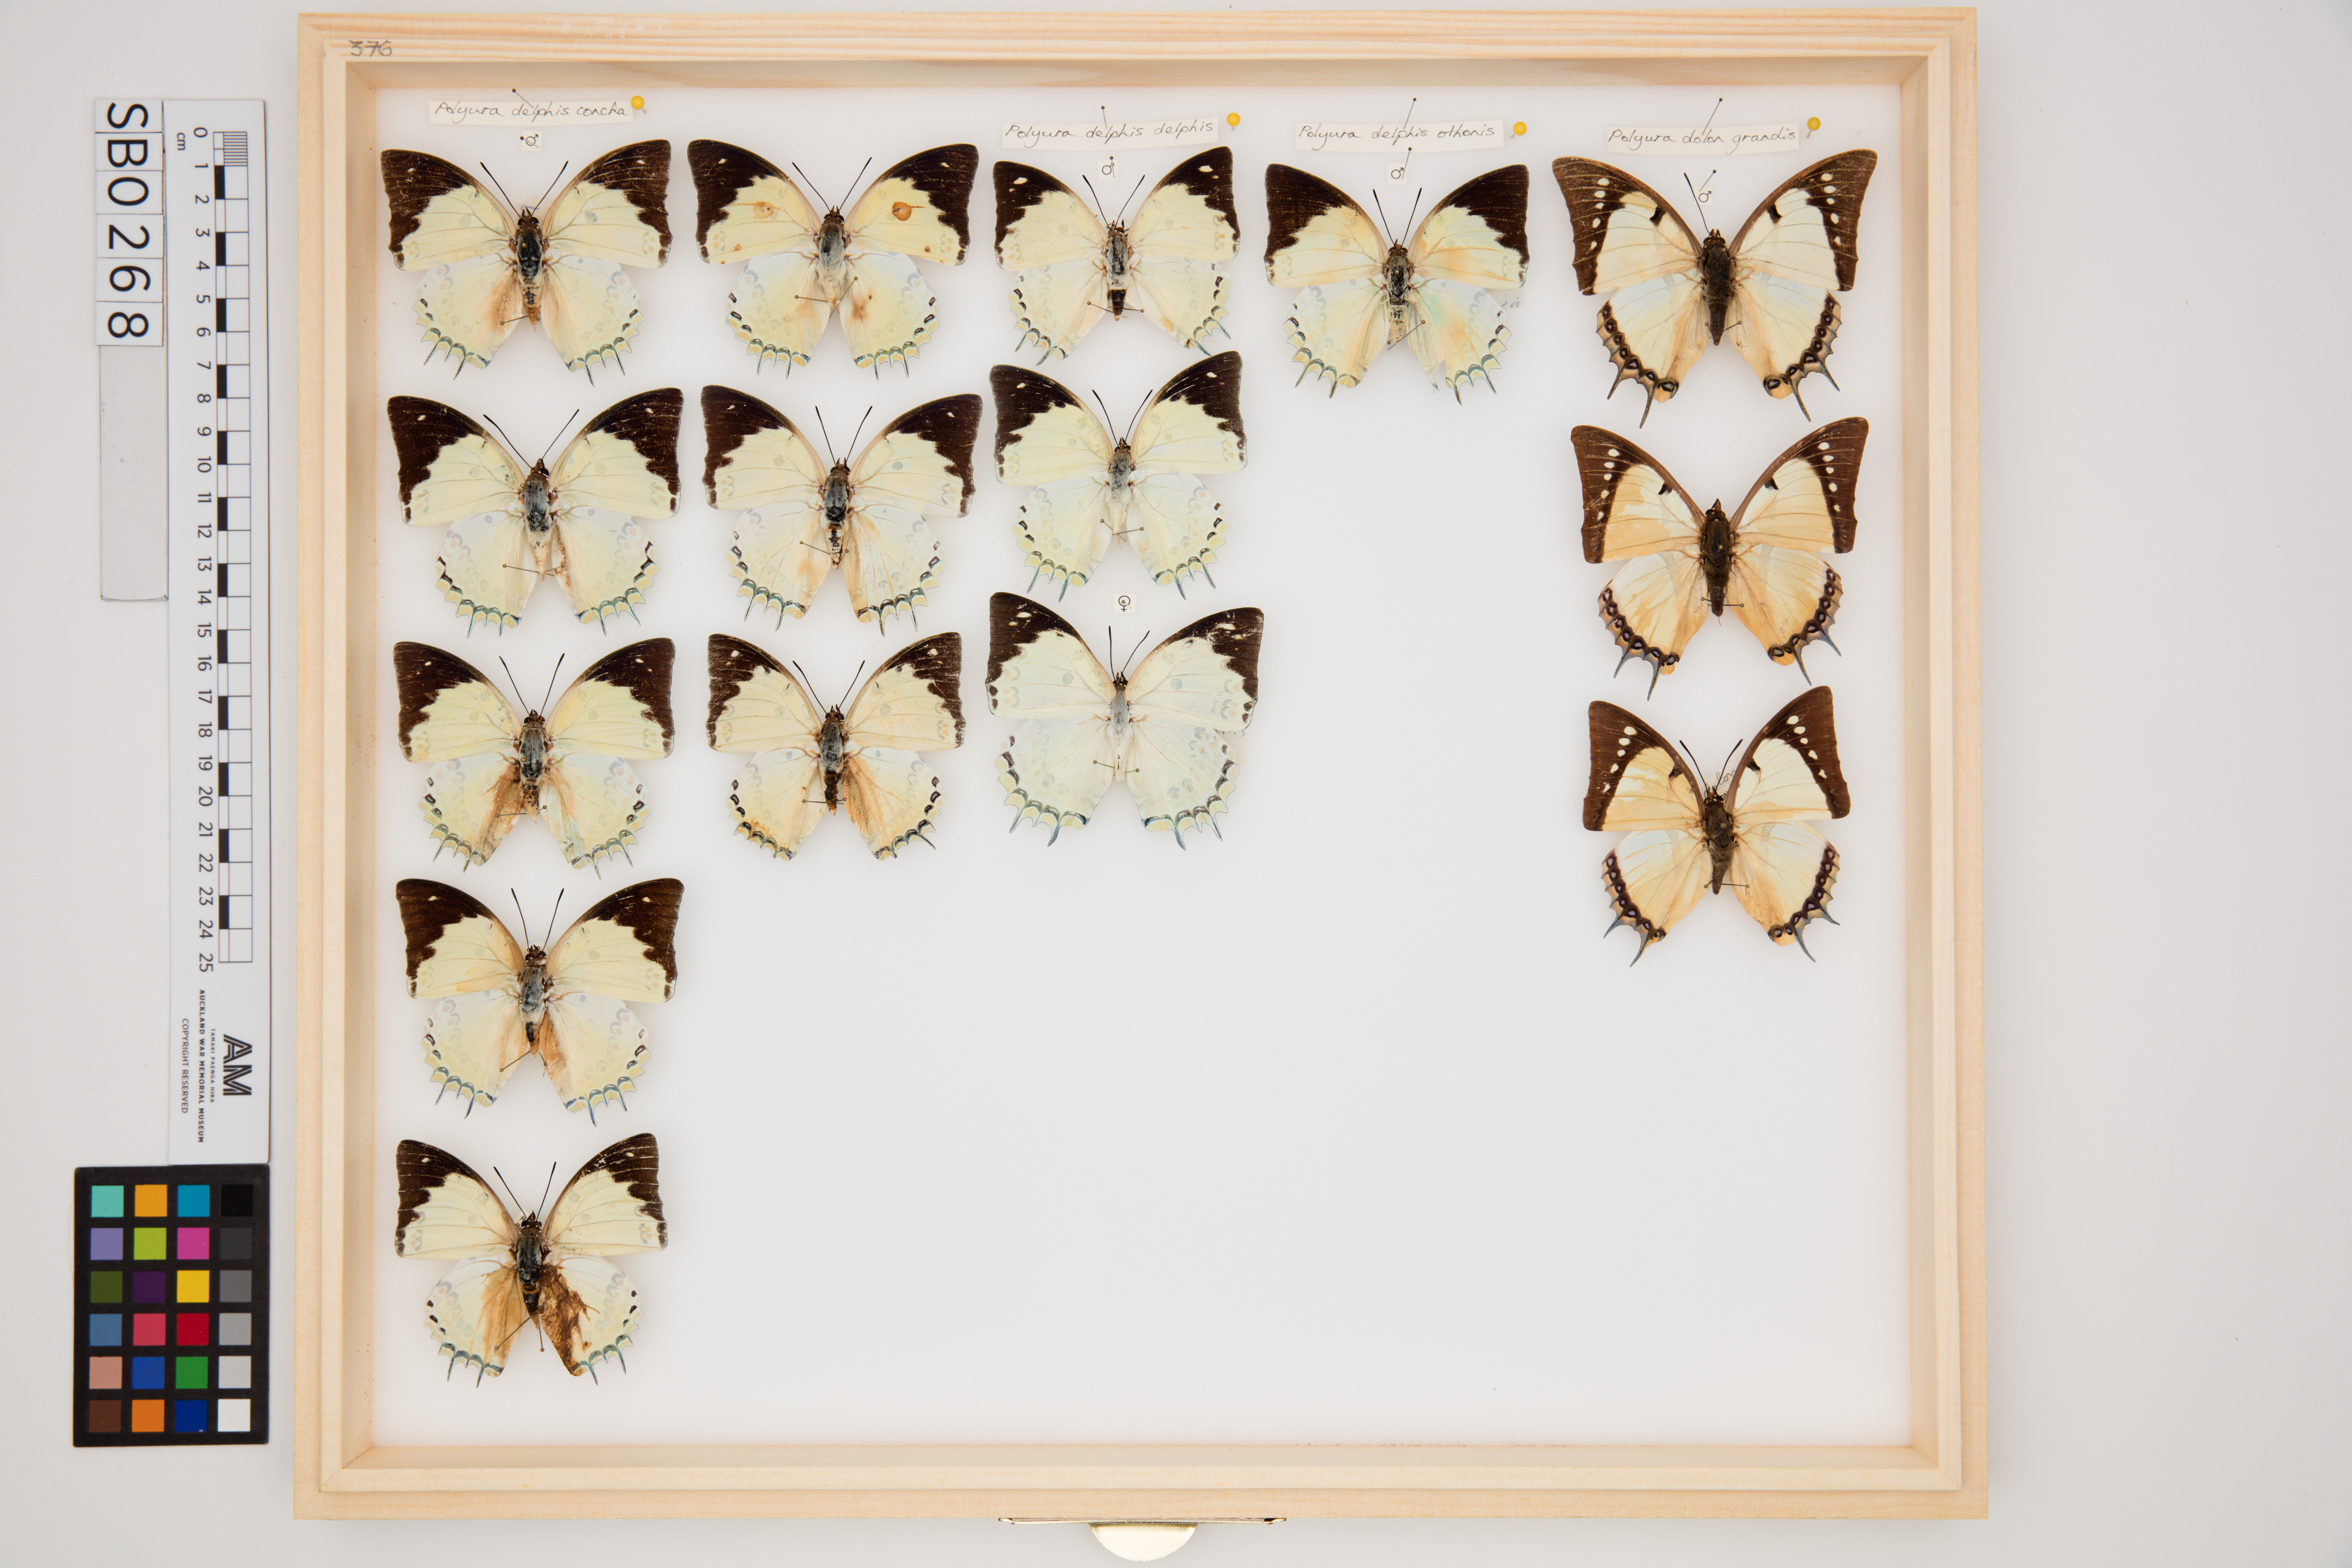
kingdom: Animalia
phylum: Arthropoda
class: Insecta
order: Lepidoptera
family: Nymphalidae
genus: Polyura
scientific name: Polyura delphis
